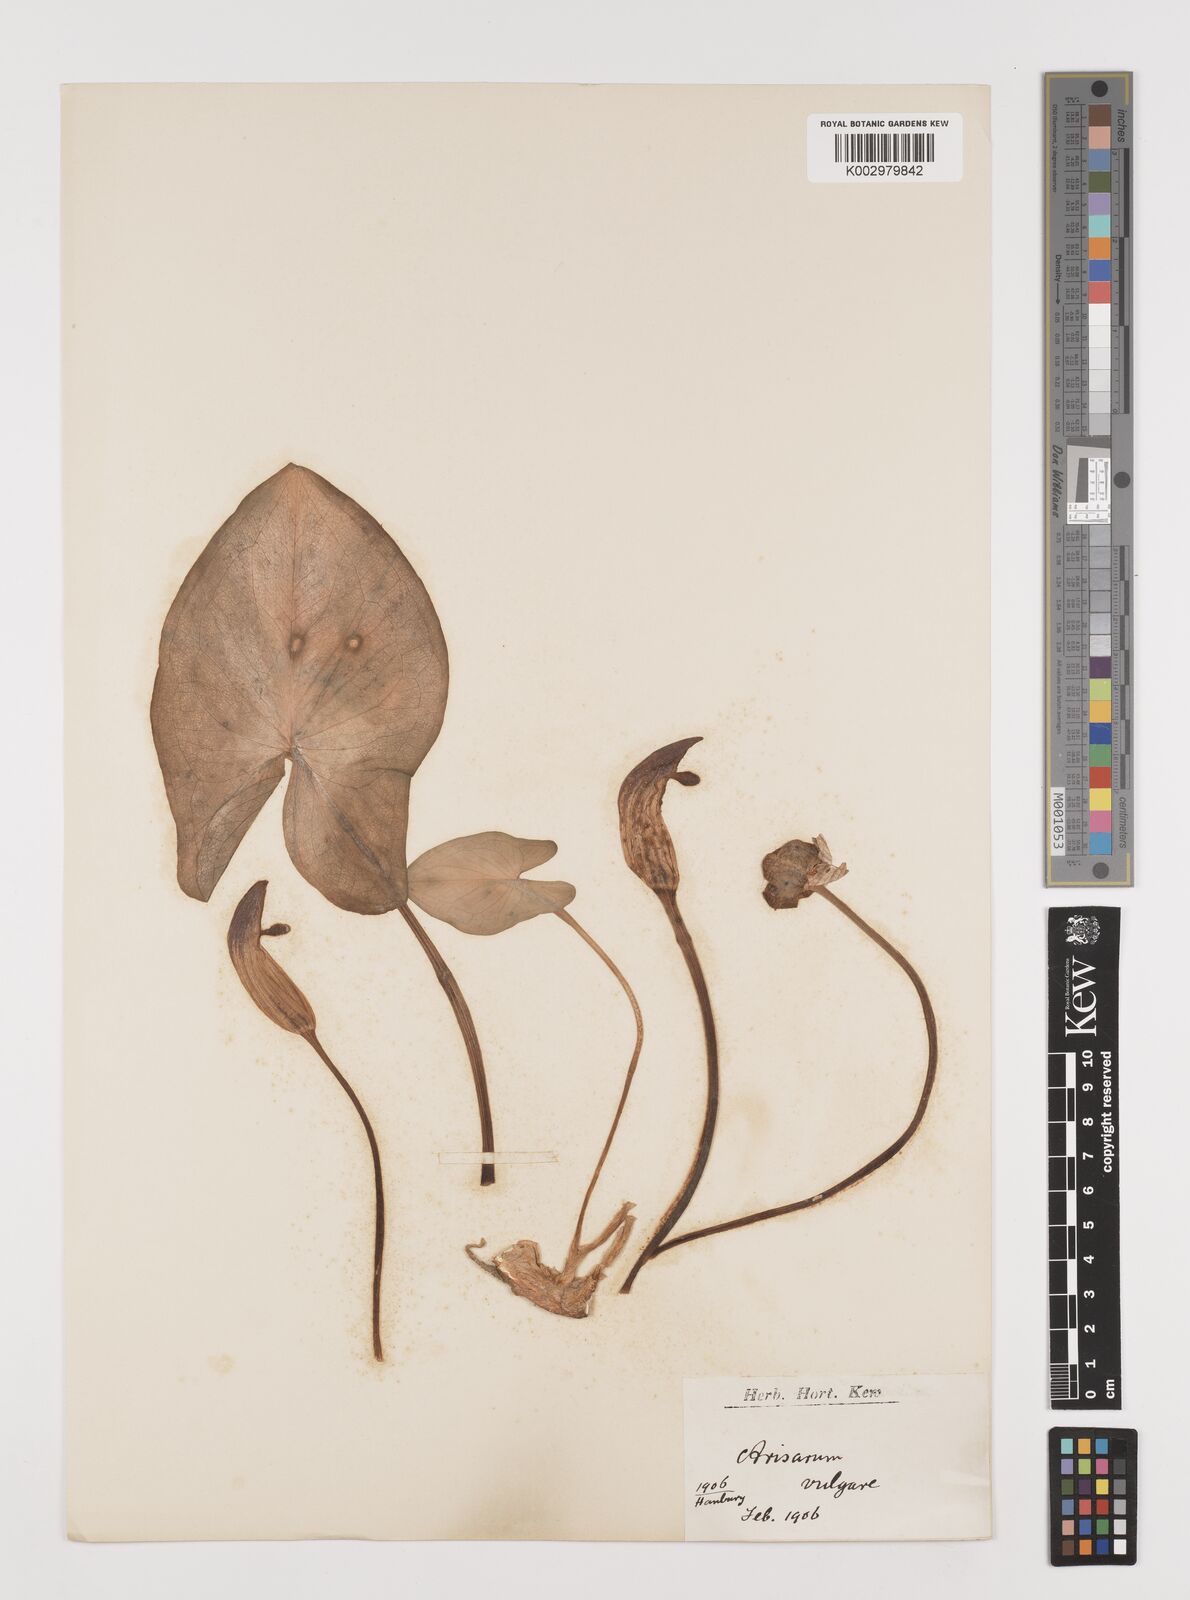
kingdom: Plantae
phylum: Tracheophyta
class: Liliopsida
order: Alismatales
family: Araceae
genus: Arisarum
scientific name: Arisarum simorrhinum
